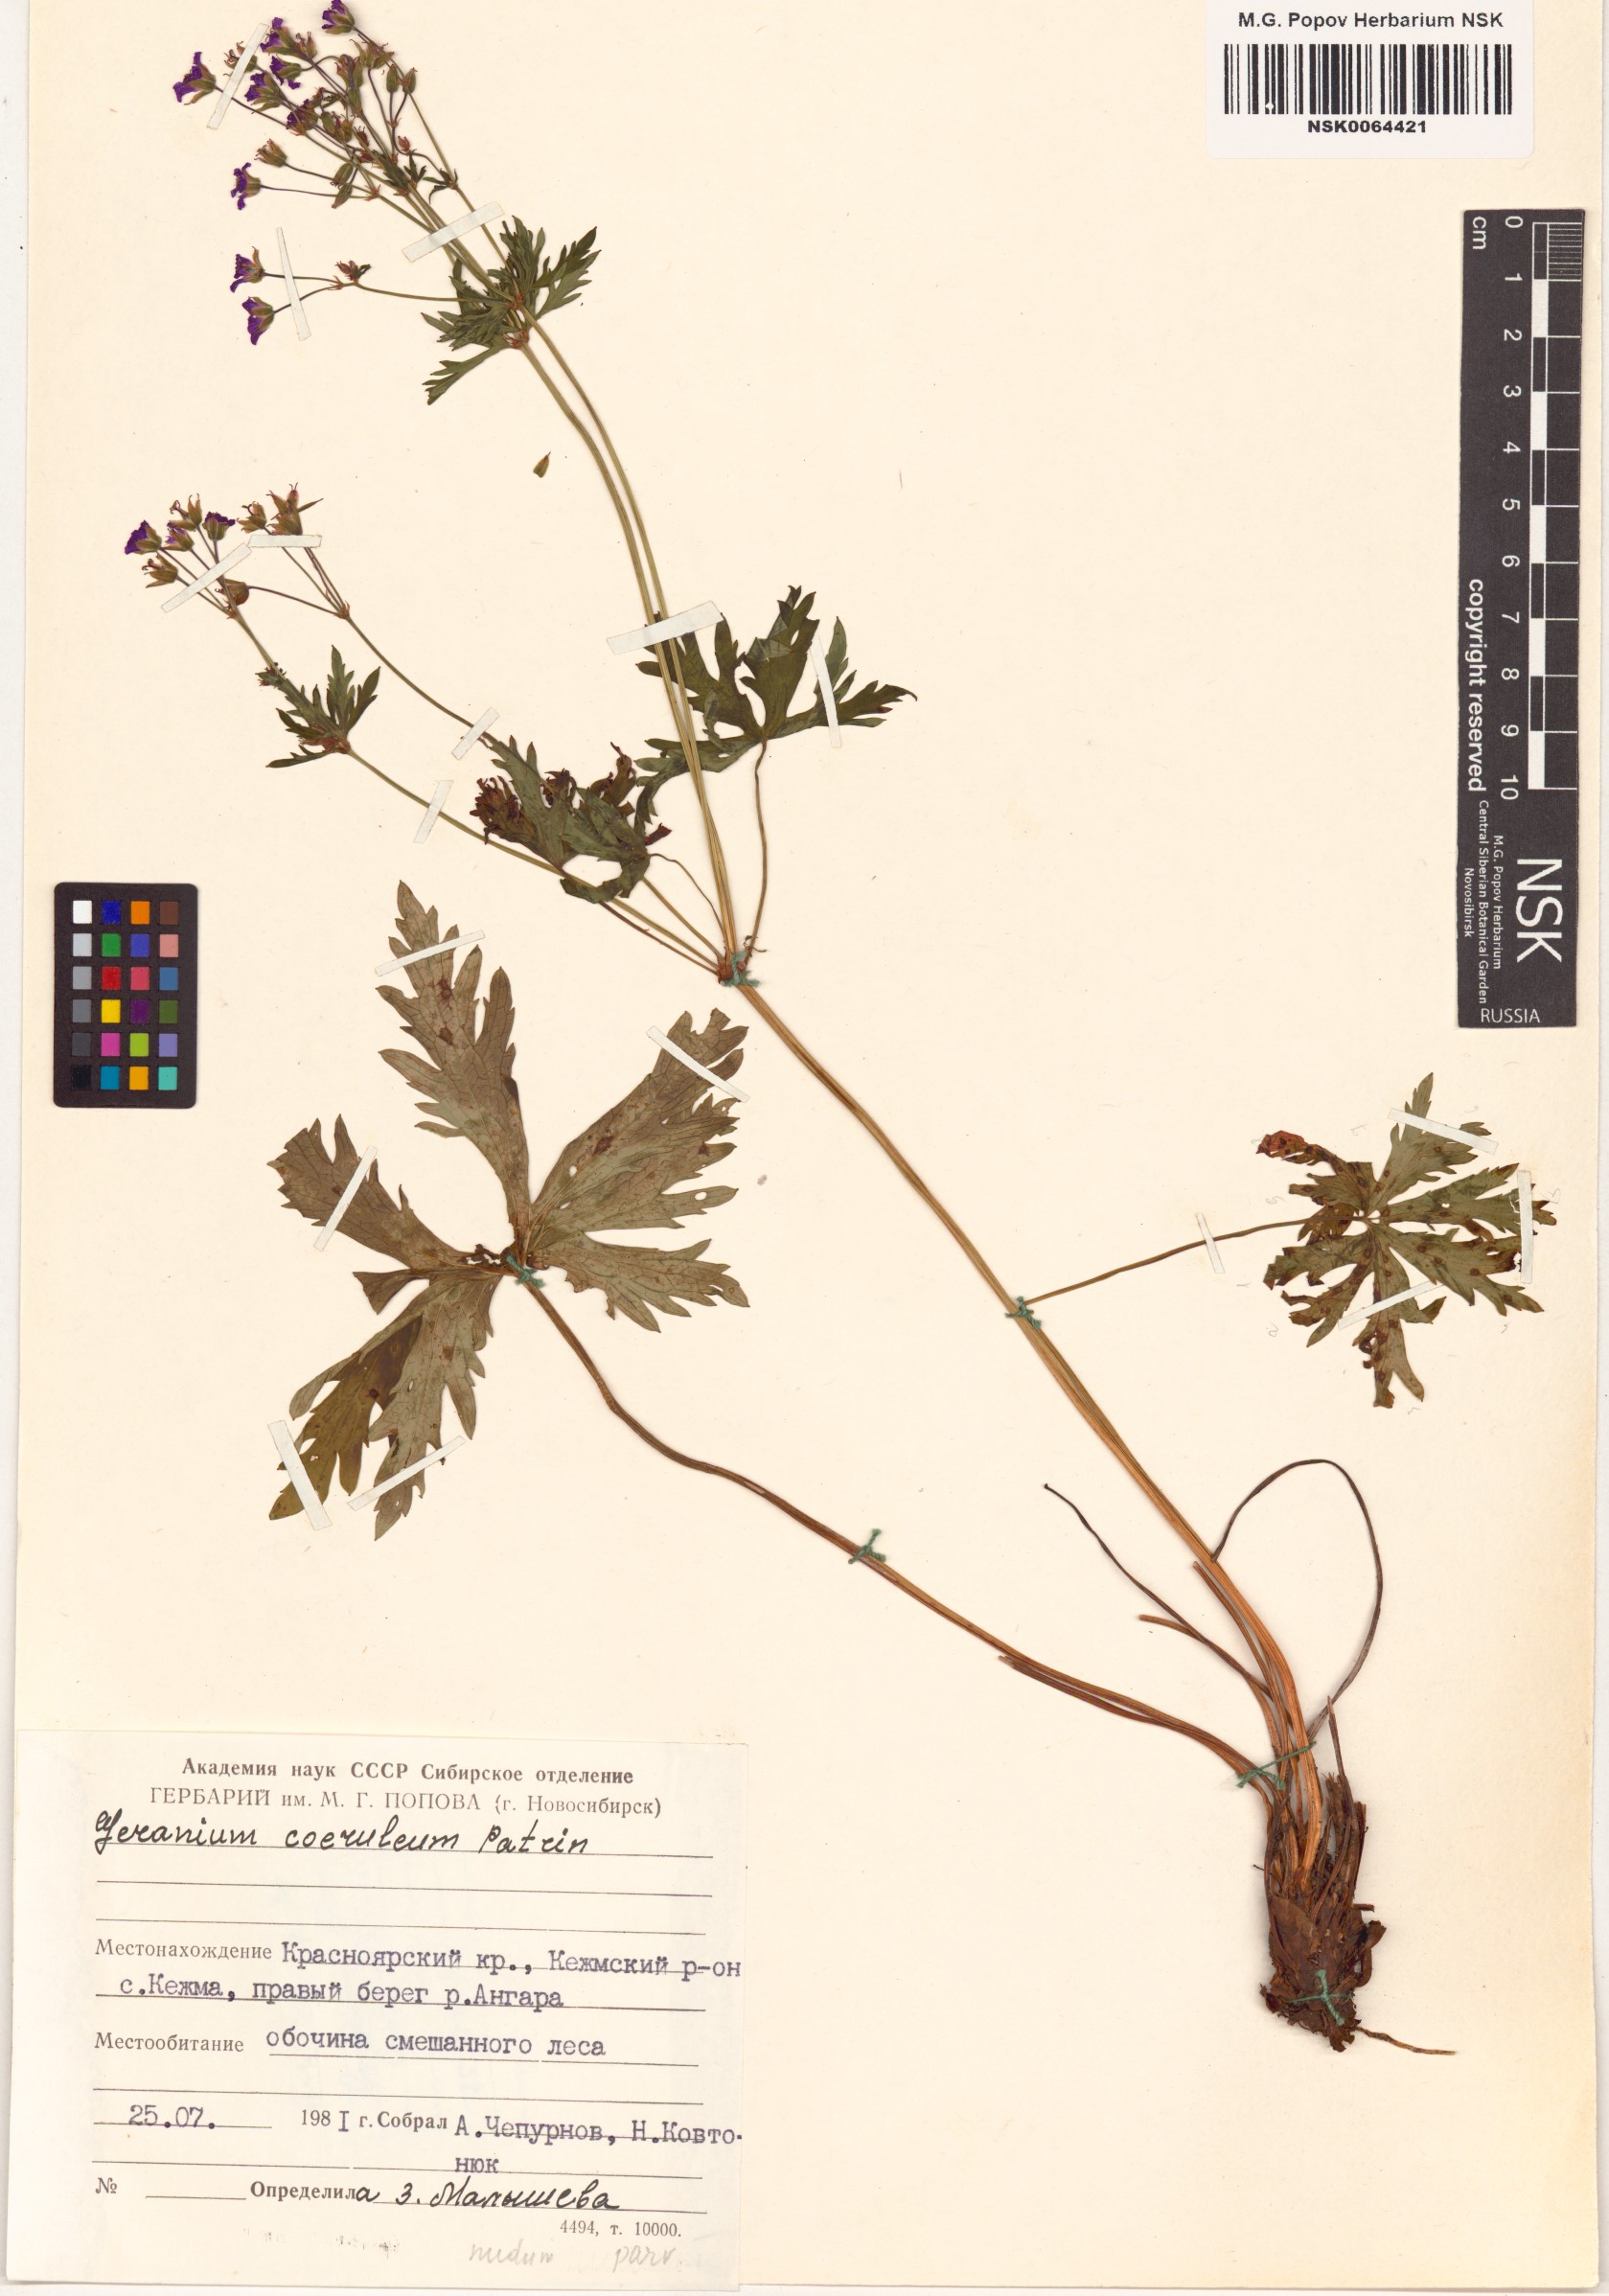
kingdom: Plantae
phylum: Tracheophyta
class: Magnoliopsida
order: Geraniales
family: Geraniaceae
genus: Geranium
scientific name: Geranium pseudosibiricum
